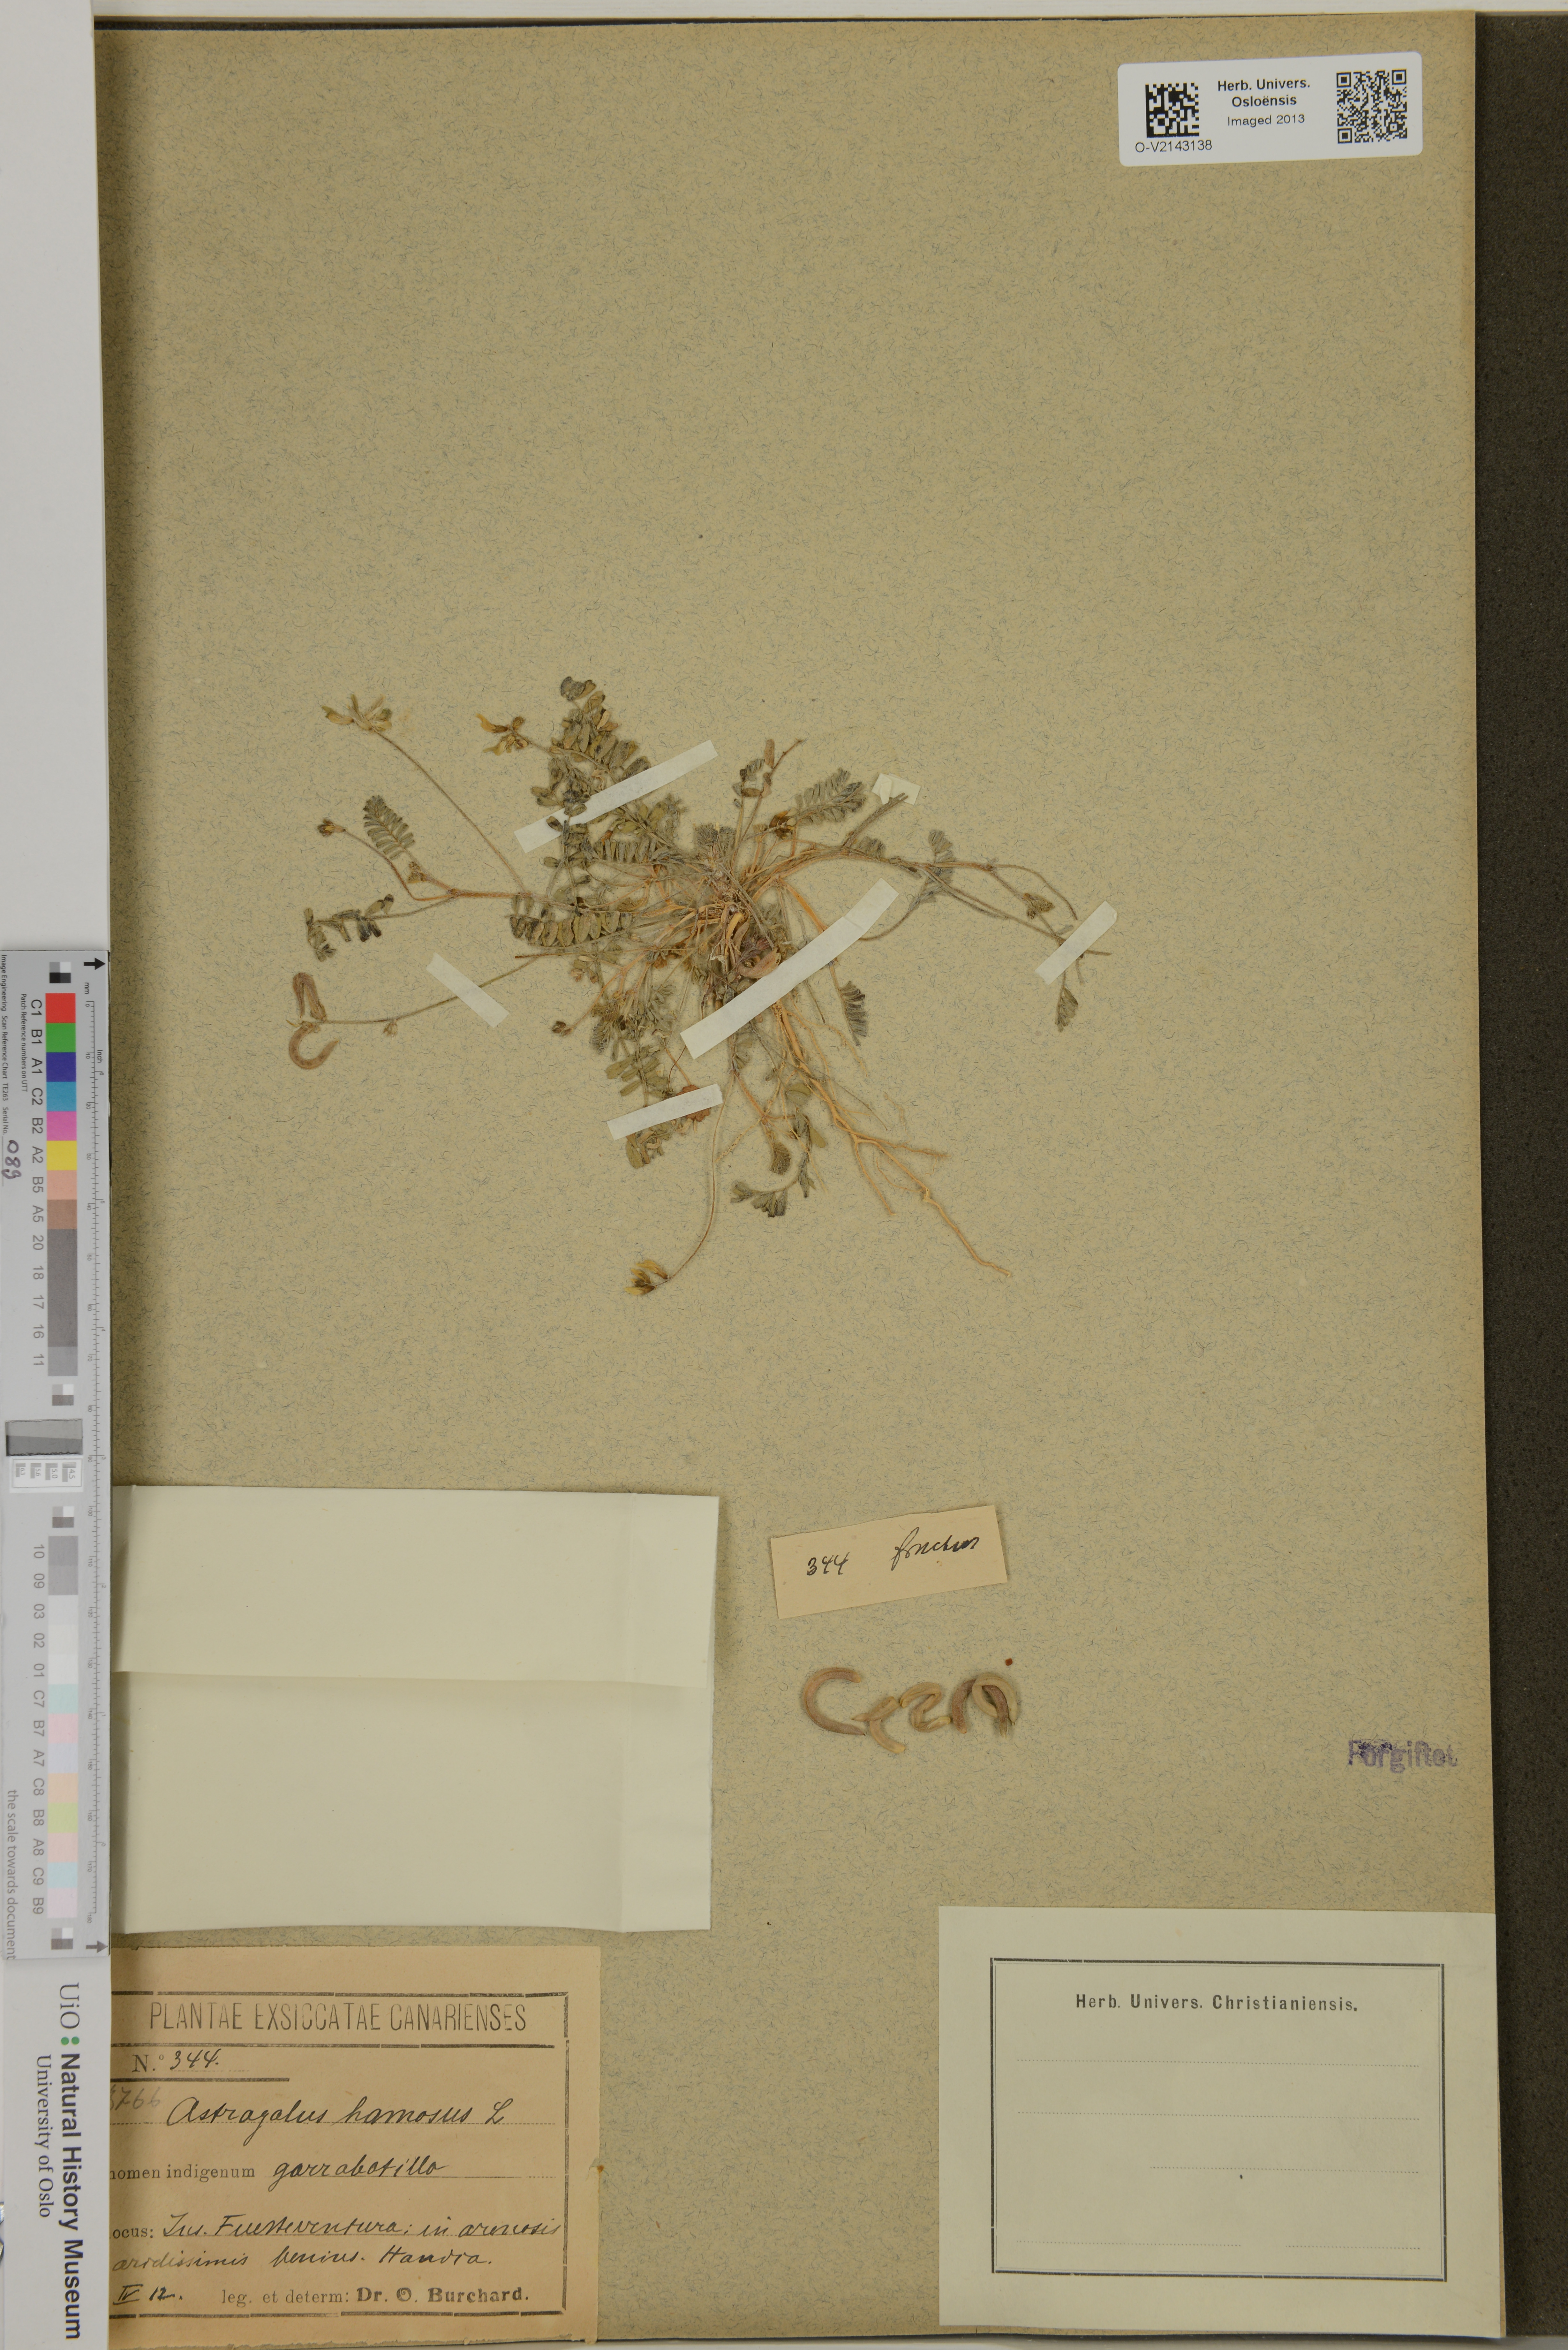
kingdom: Plantae
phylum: Tracheophyta
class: Magnoliopsida
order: Fabales
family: Fabaceae
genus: Astragalus
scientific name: Astragalus hamosus
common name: European milkvetch
